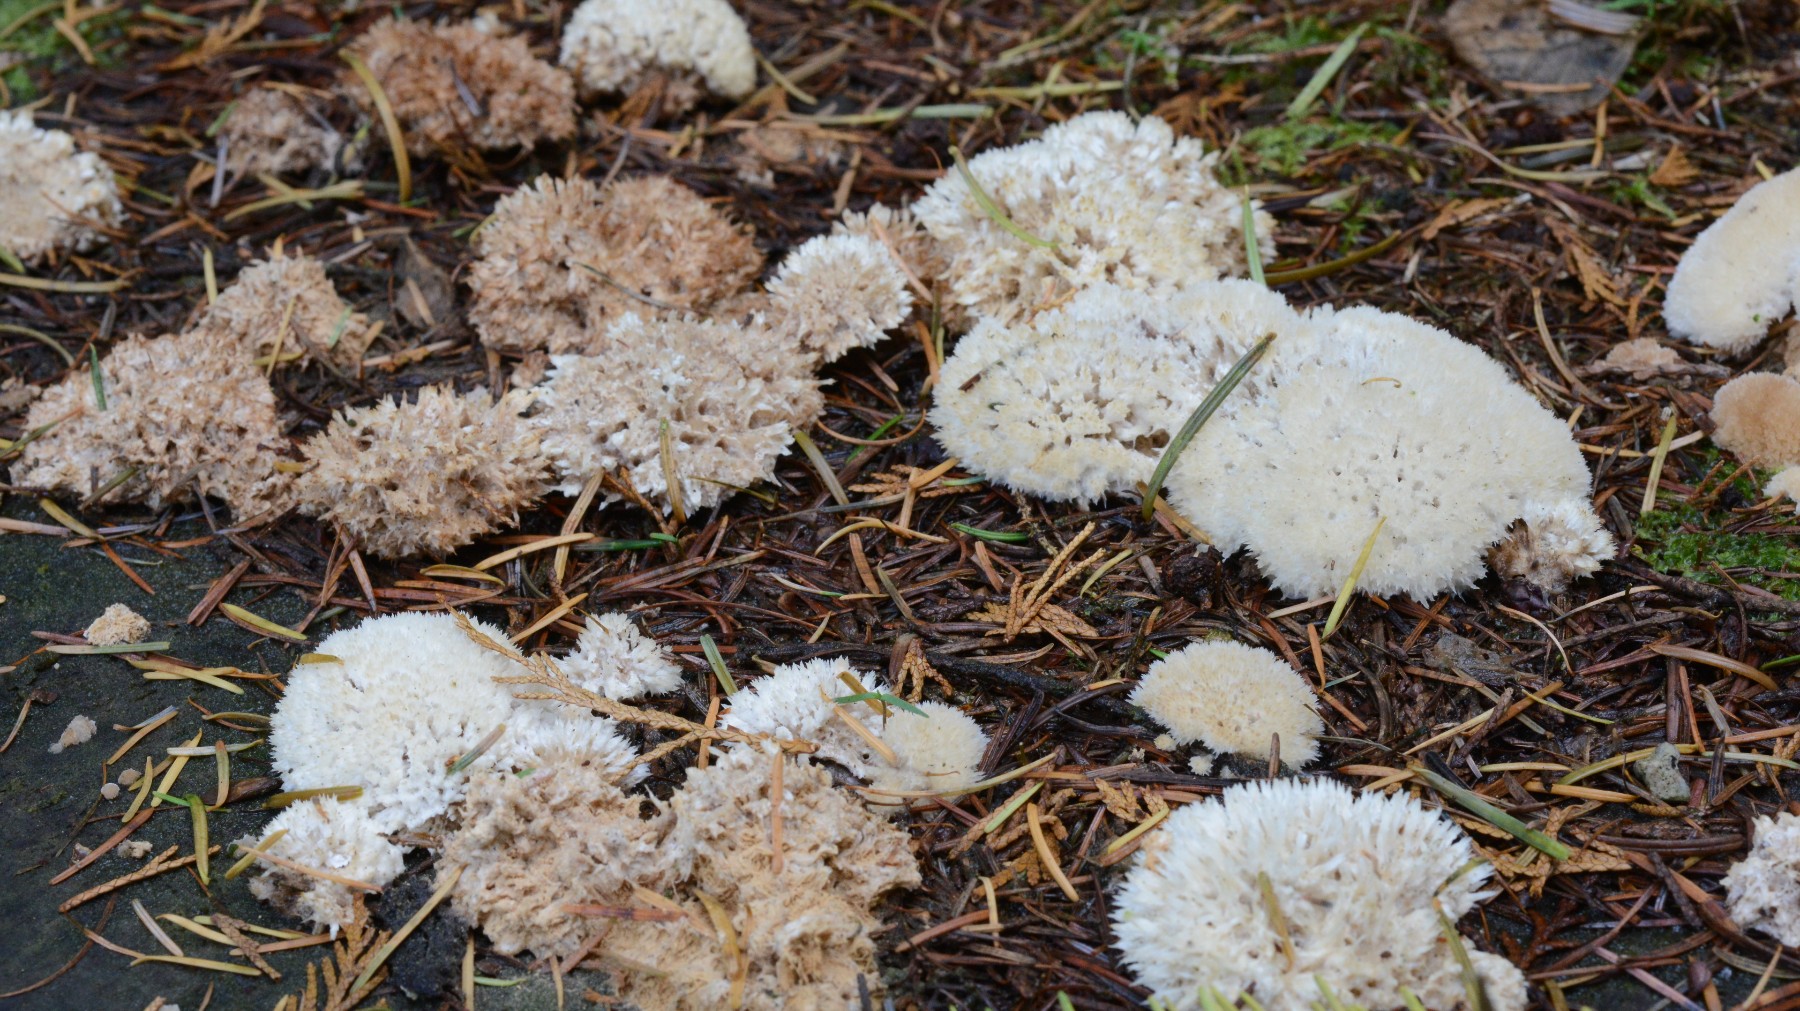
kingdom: Fungi
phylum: Basidiomycota
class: Agaricomycetes
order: Polyporales
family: Dacryobolaceae
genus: Postia
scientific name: Postia ptychogaster
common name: støvende kødporesvamp
